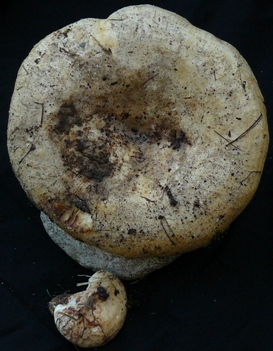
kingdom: Fungi
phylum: Basidiomycota
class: Agaricomycetes
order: Russulales
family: Russulaceae
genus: Lactarius
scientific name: Lactarius controversus
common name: rosabladet mælkehat
